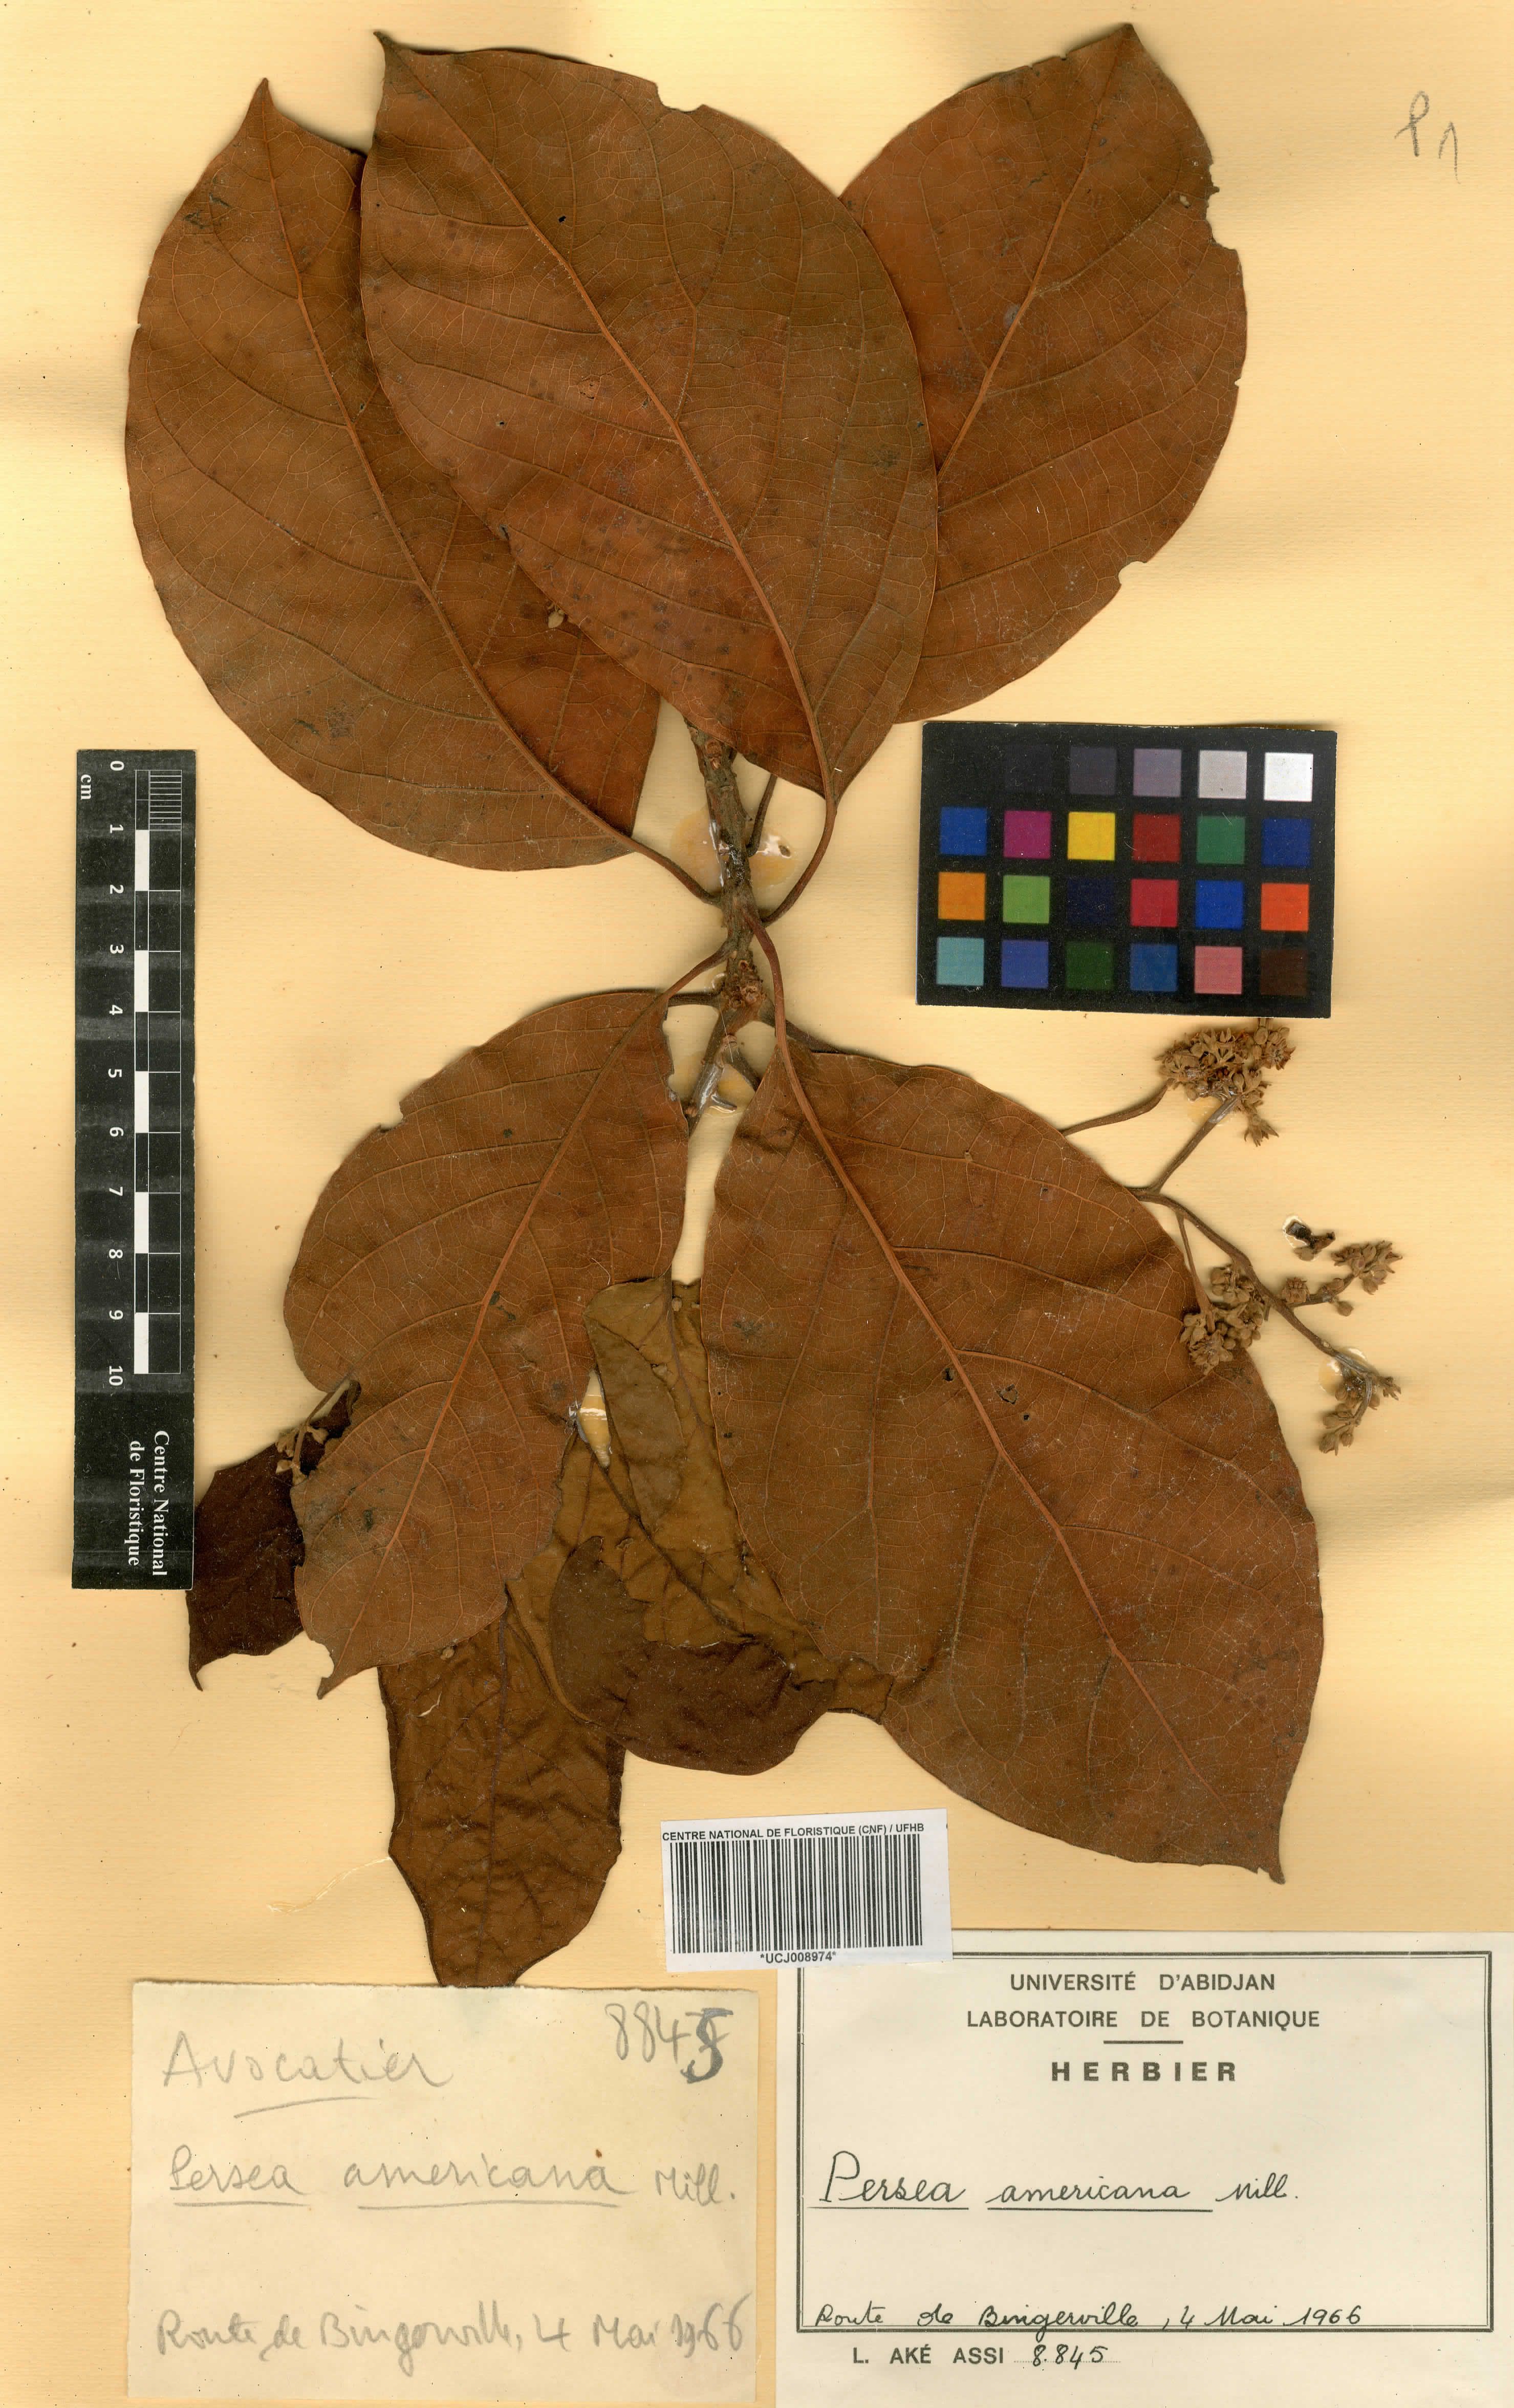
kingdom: Plantae
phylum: Tracheophyta
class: Magnoliopsida
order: Laurales
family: Lauraceae
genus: Persea
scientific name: Persea americana
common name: Avocado
